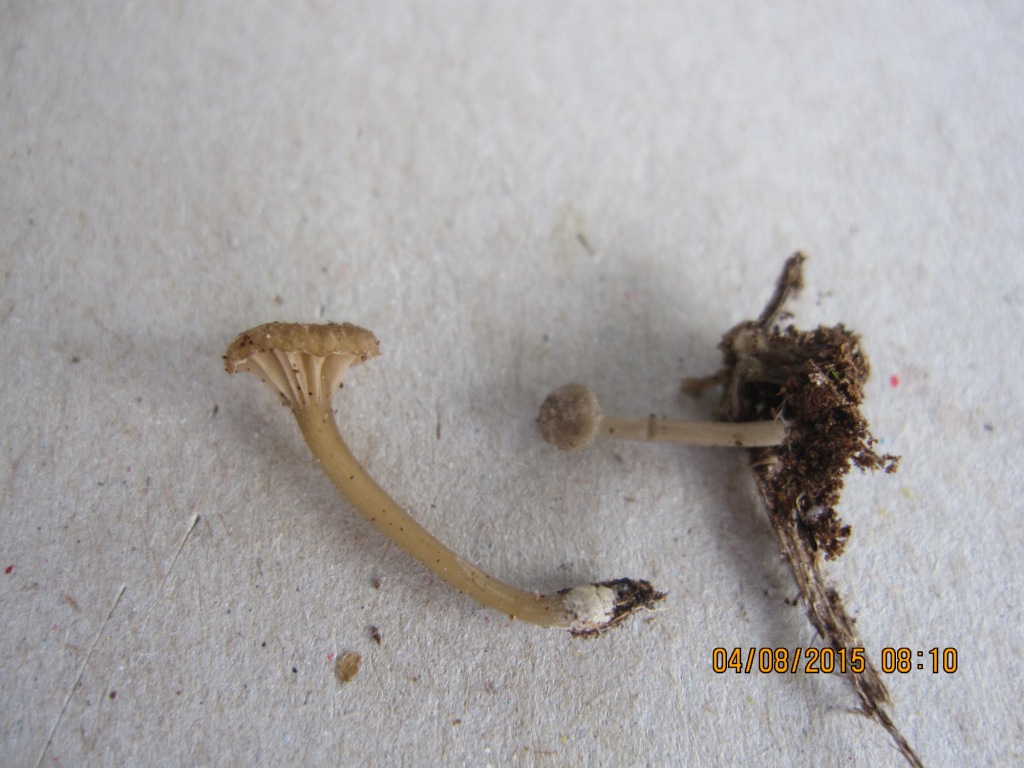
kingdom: Fungi
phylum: Basidiomycota
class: Agaricomycetes
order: Agaricales
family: Entolomataceae
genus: Entoloma
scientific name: Entoloma rhodocylix
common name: fjernbladet rødblad
